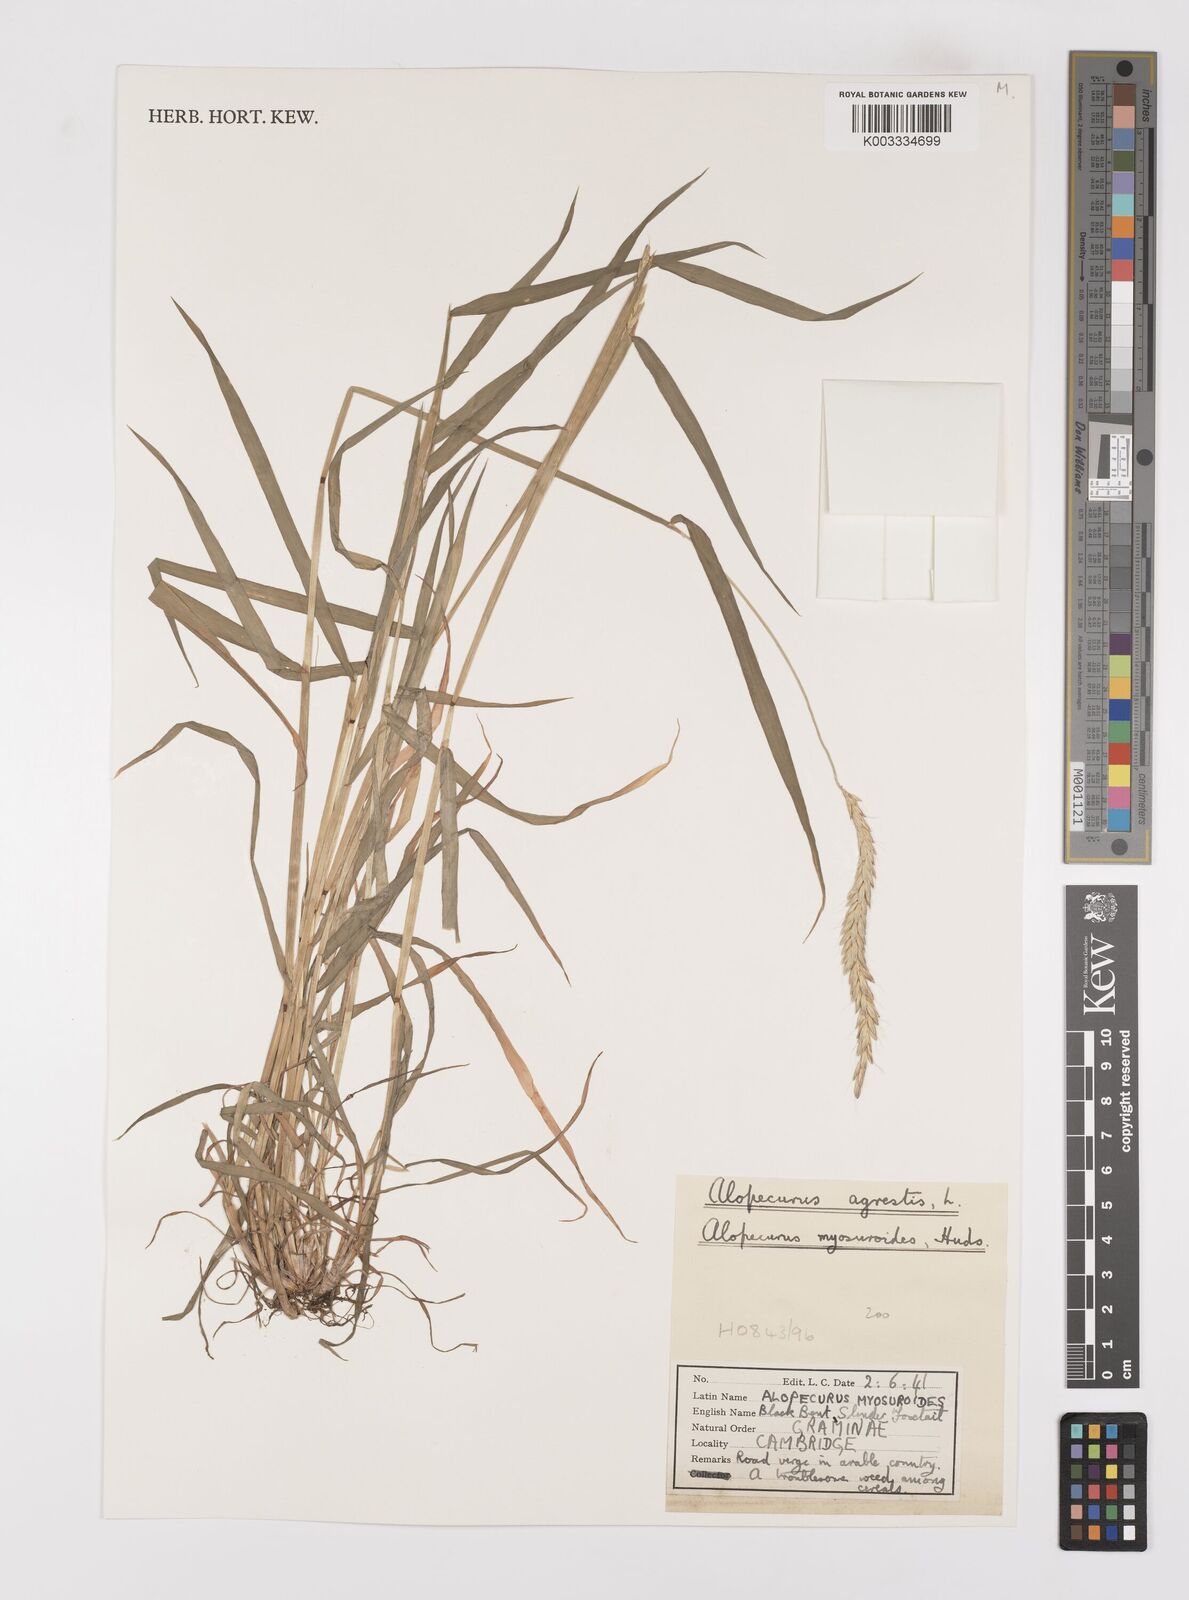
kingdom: Plantae
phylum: Tracheophyta
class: Liliopsida
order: Poales
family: Poaceae
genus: Alopecurus
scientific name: Alopecurus myosuroides
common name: Black-grass
